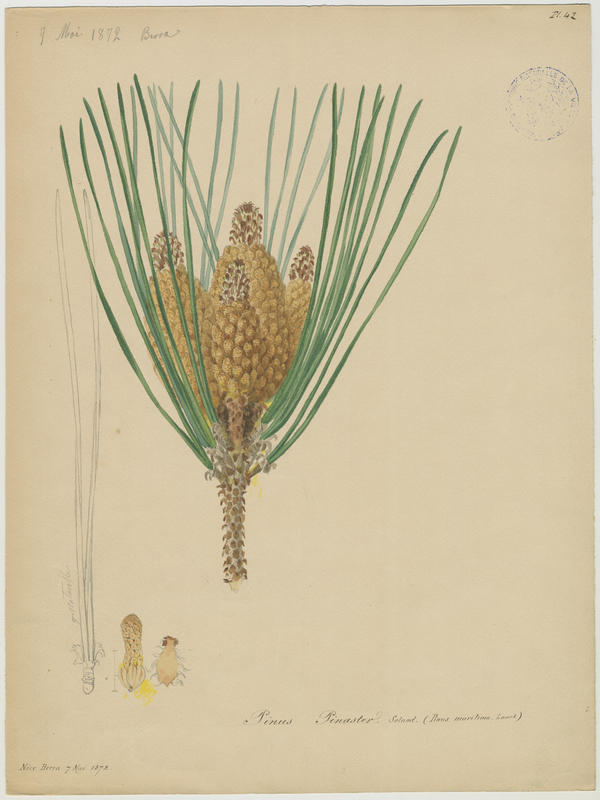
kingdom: Plantae
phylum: Tracheophyta
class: Pinopsida
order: Pinales
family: Pinaceae
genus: Pinus
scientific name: Pinus pinaster
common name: Maritime pine
